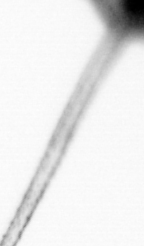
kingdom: Chromista
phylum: Ochrophyta
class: Bacillariophyceae
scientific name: Bacillariophyceae
